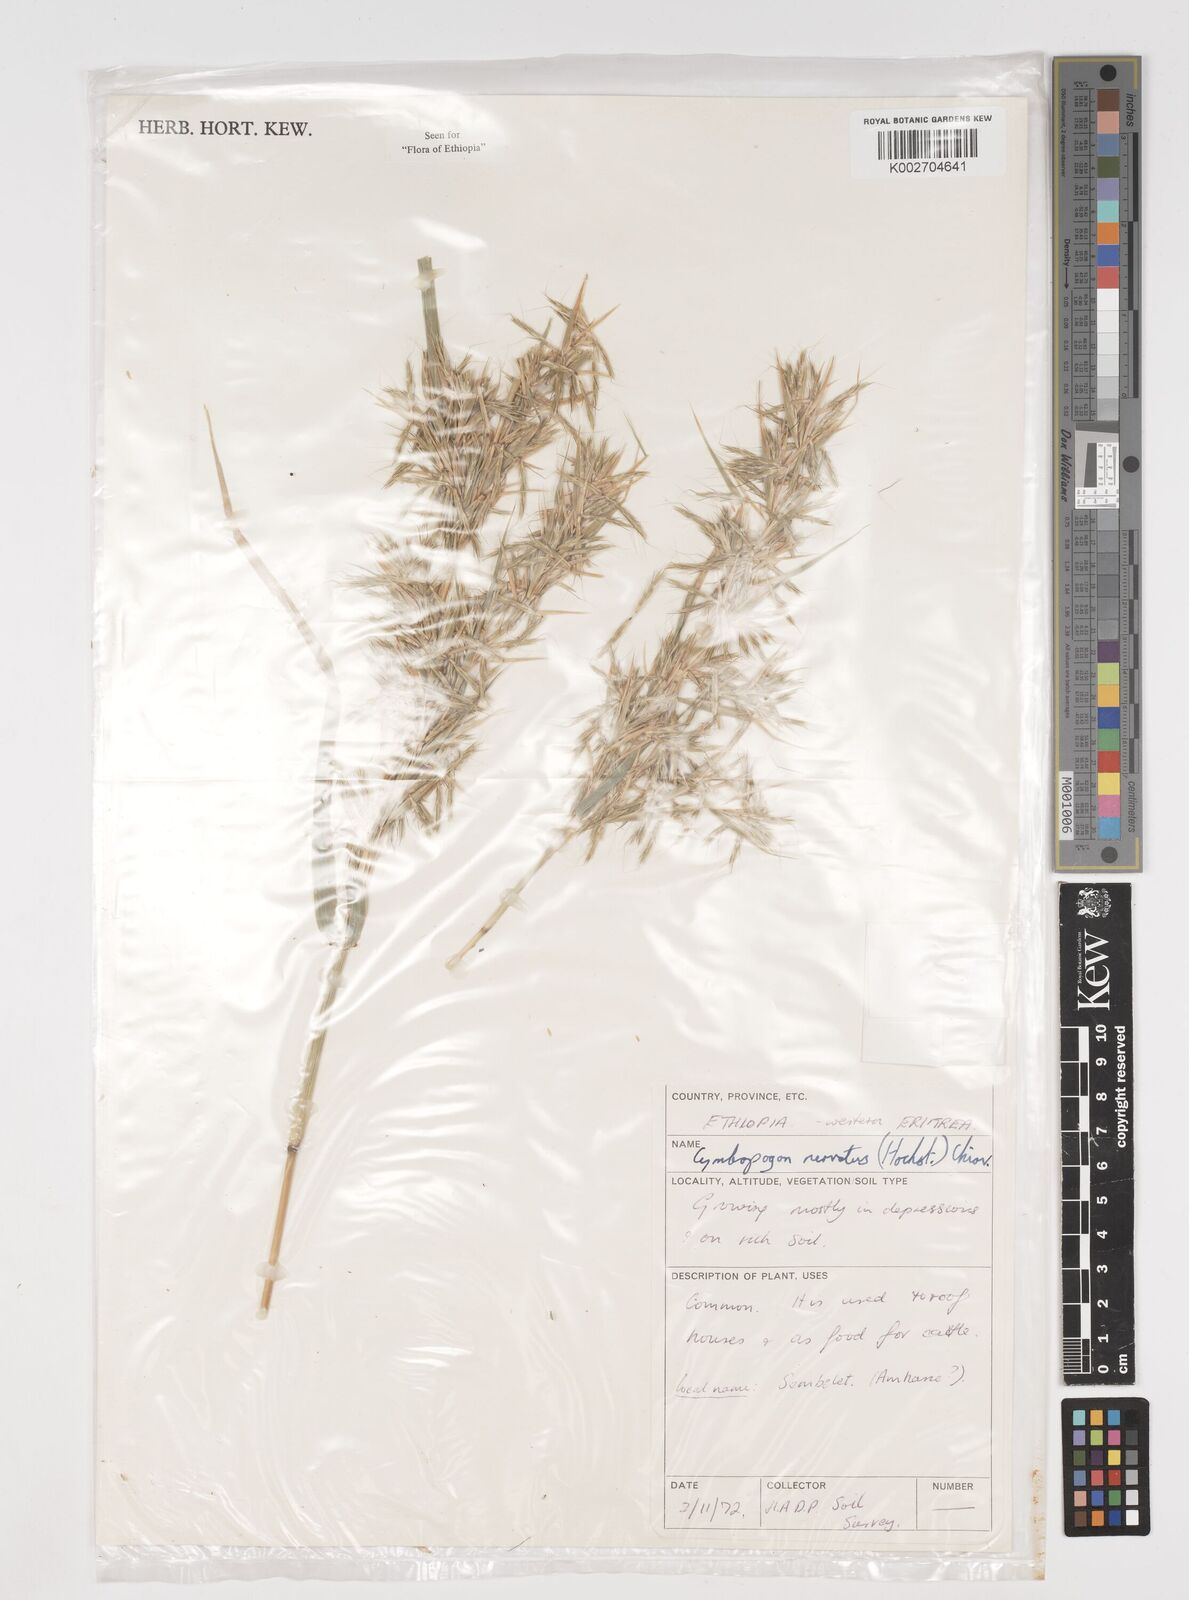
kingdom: Plantae
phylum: Tracheophyta
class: Liliopsida
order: Poales
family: Poaceae
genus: Cymbopogon
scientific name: Cymbopogon nervatus
